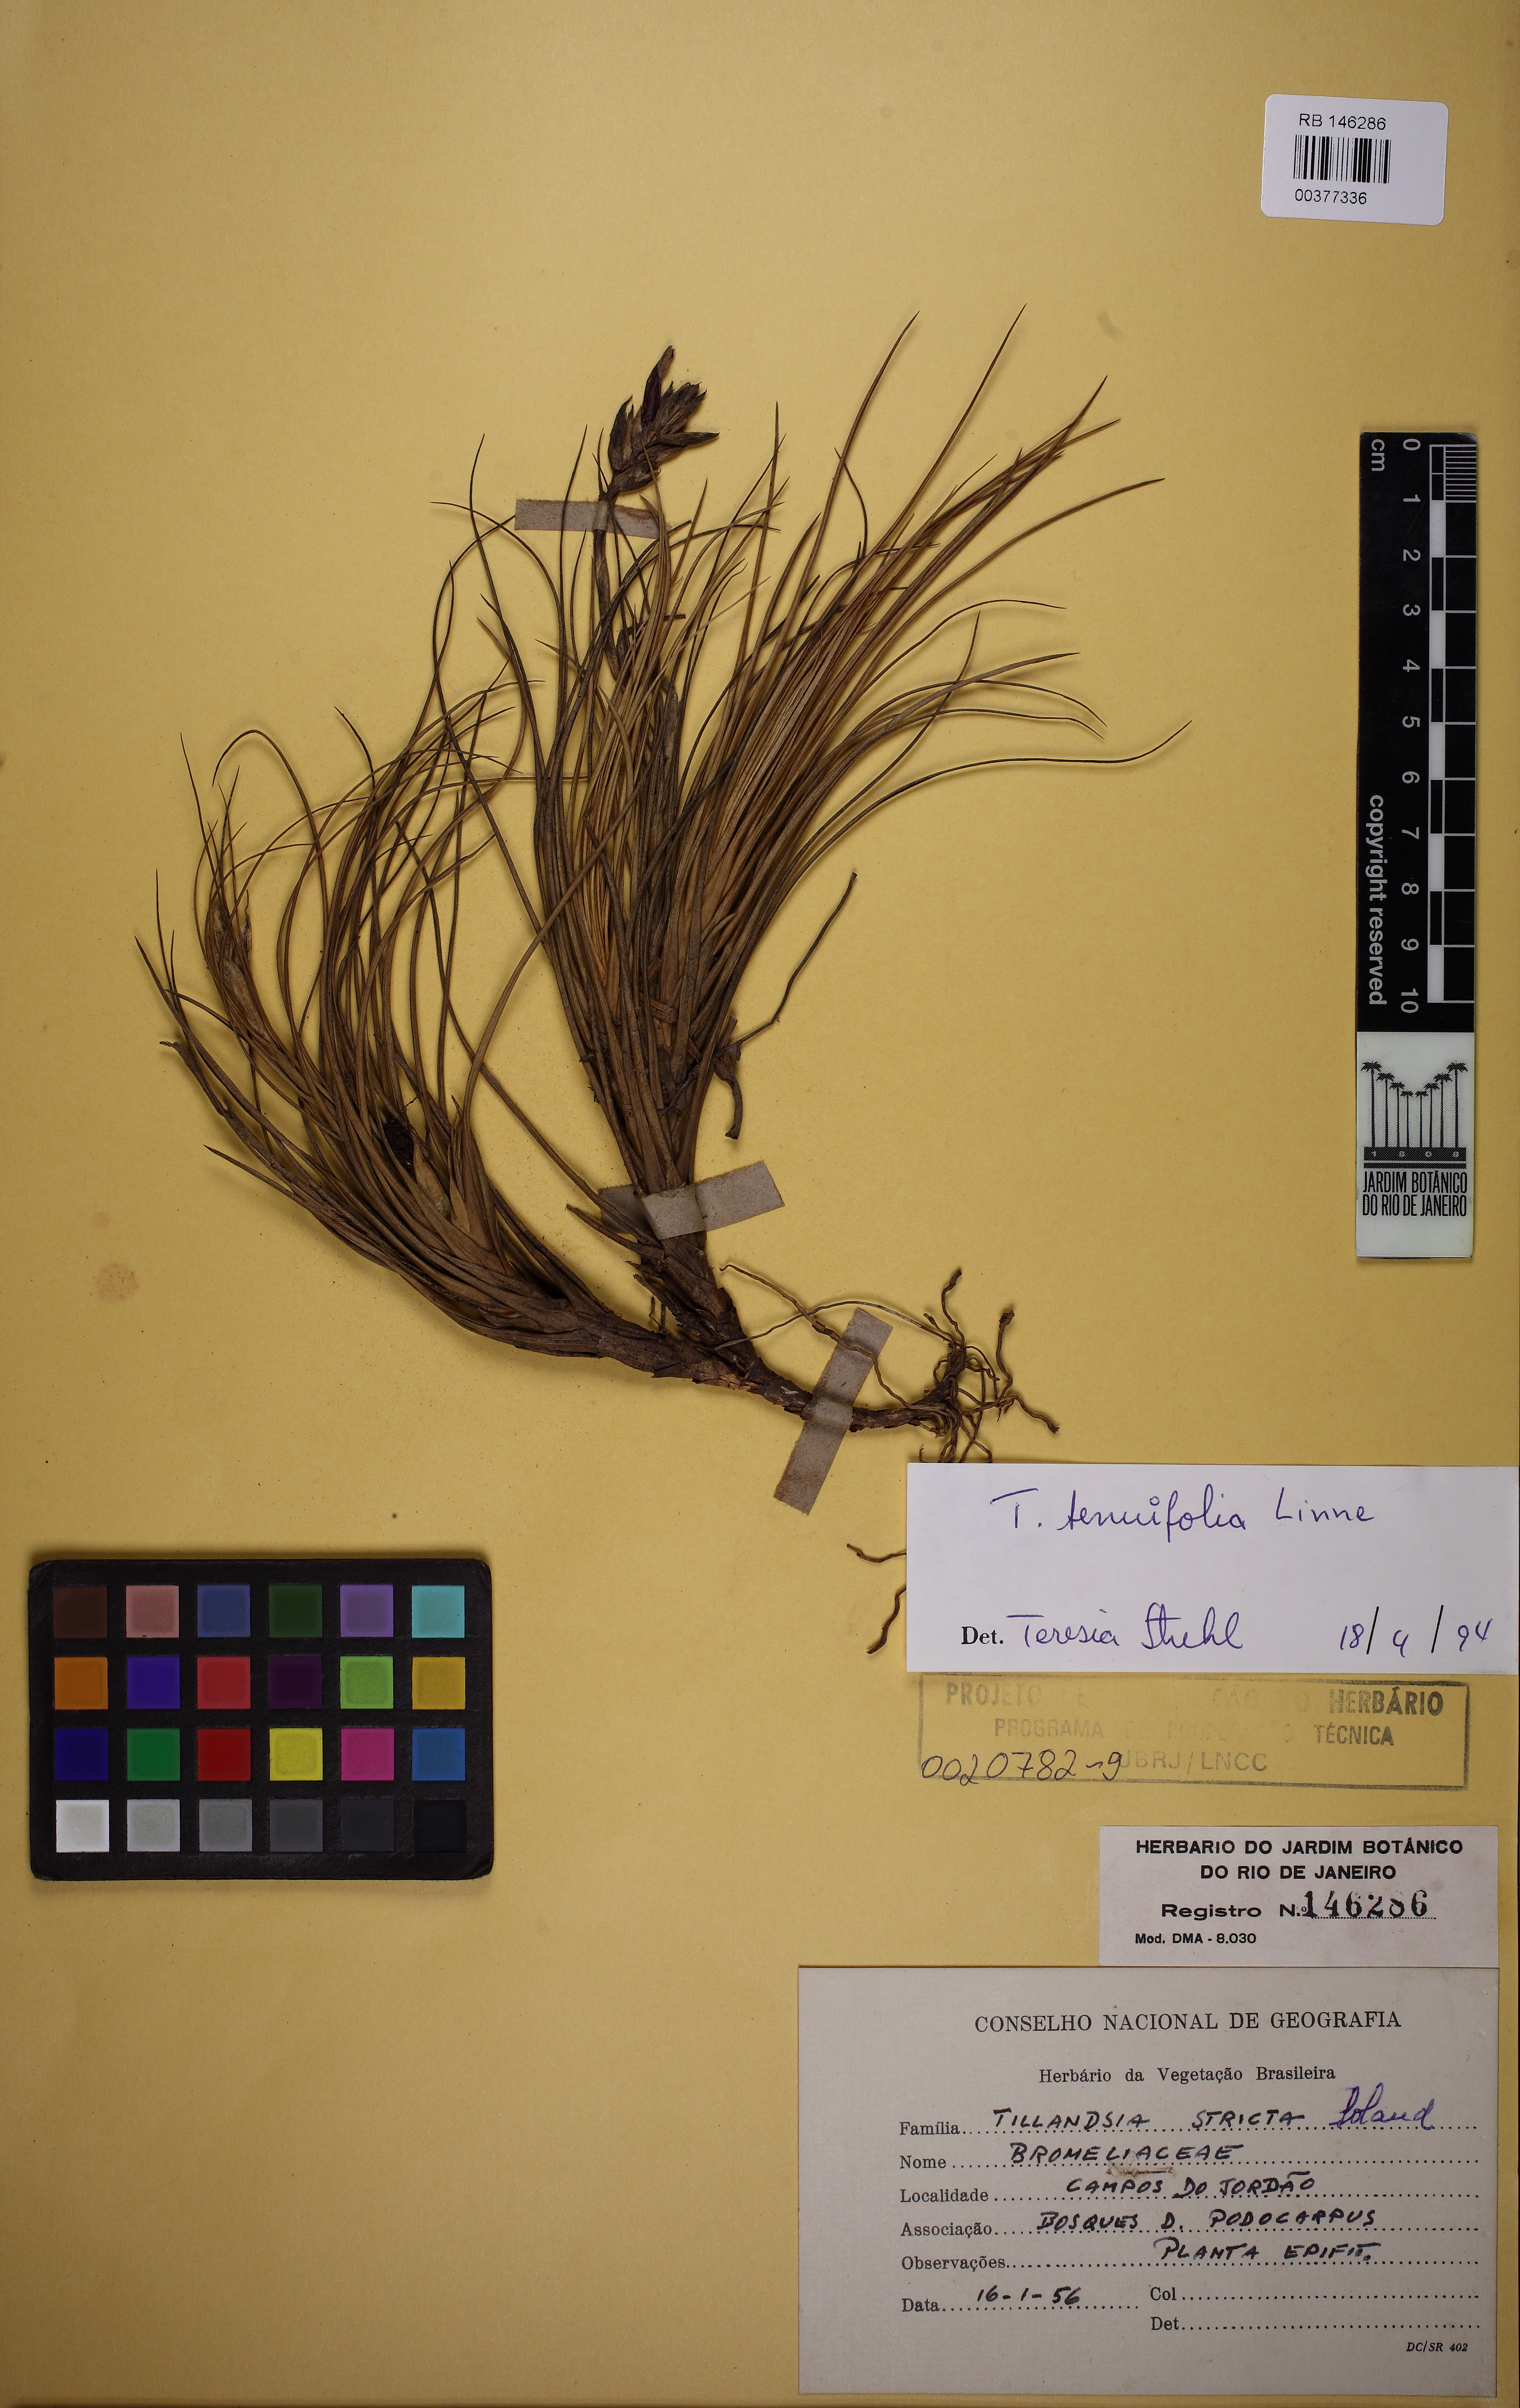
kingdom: Plantae
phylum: Tracheophyta
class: Liliopsida
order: Poales
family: Bromeliaceae
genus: Tillandsia
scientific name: Tillandsia tenuifolia
